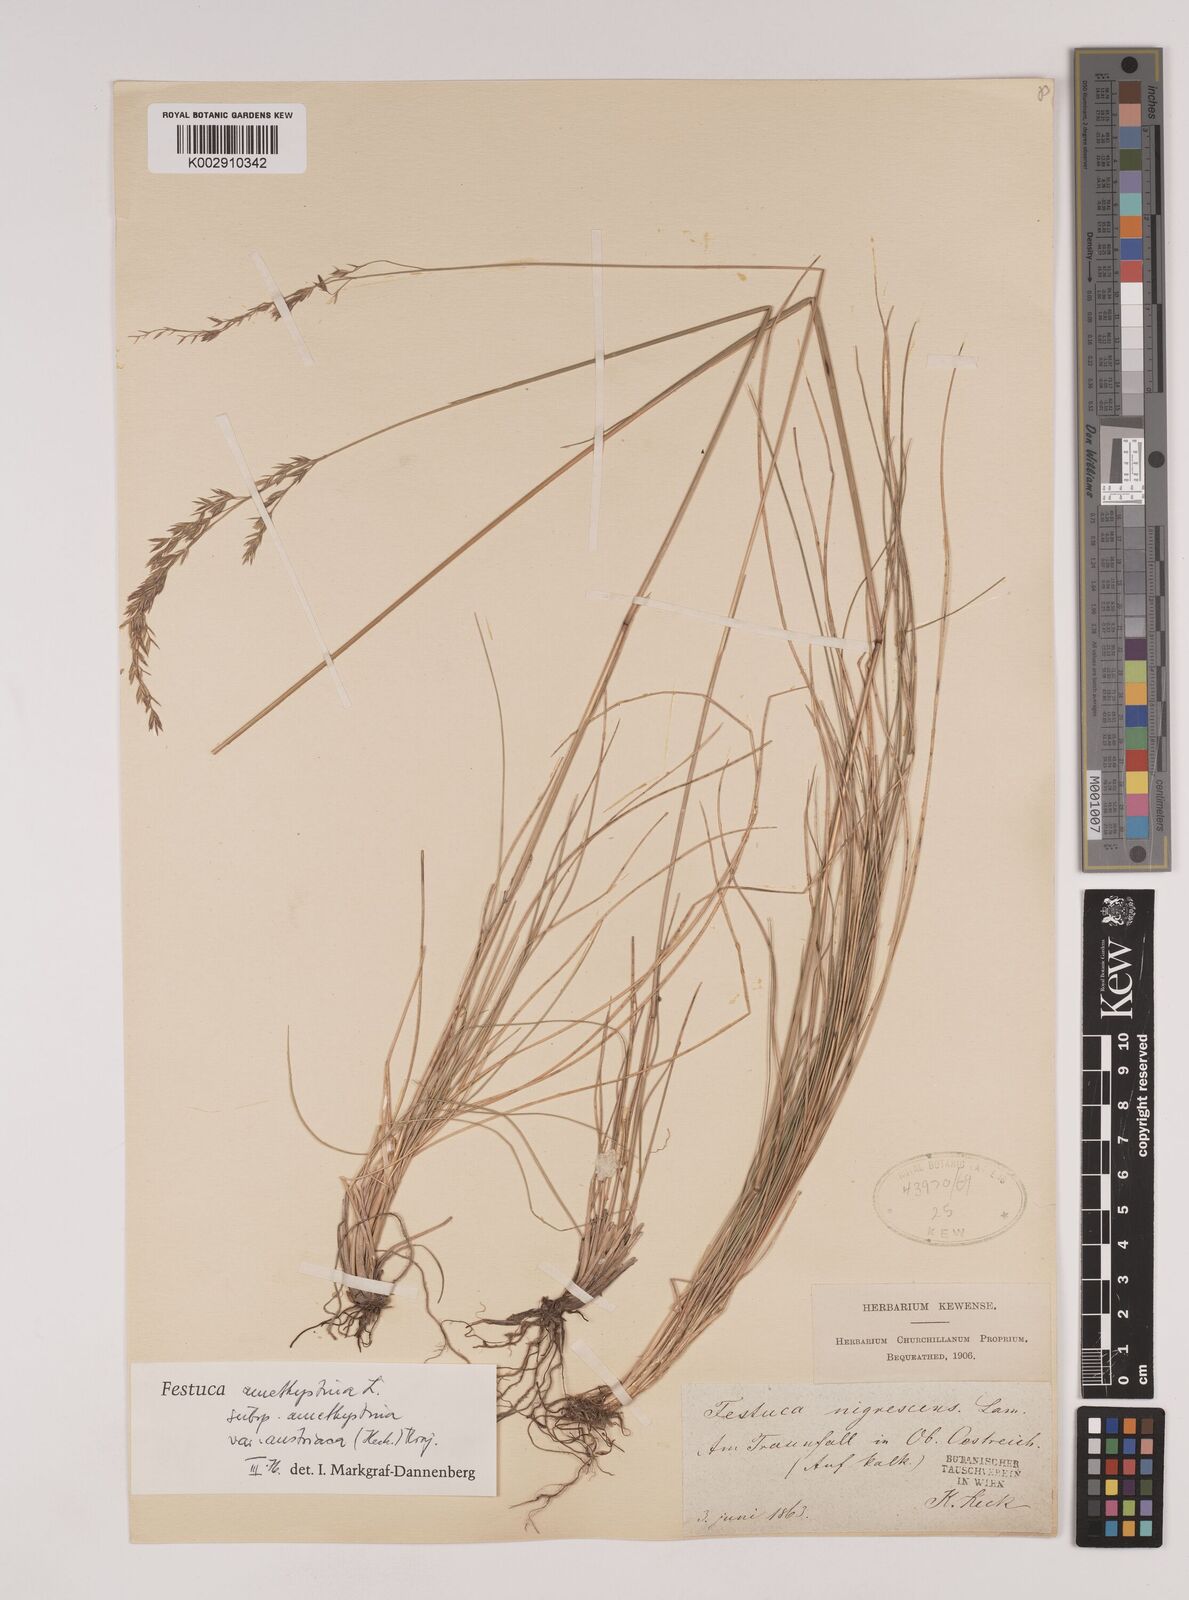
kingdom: Plantae
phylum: Tracheophyta
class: Liliopsida
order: Poales
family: Poaceae
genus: Festuca
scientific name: Festuca amethystina
